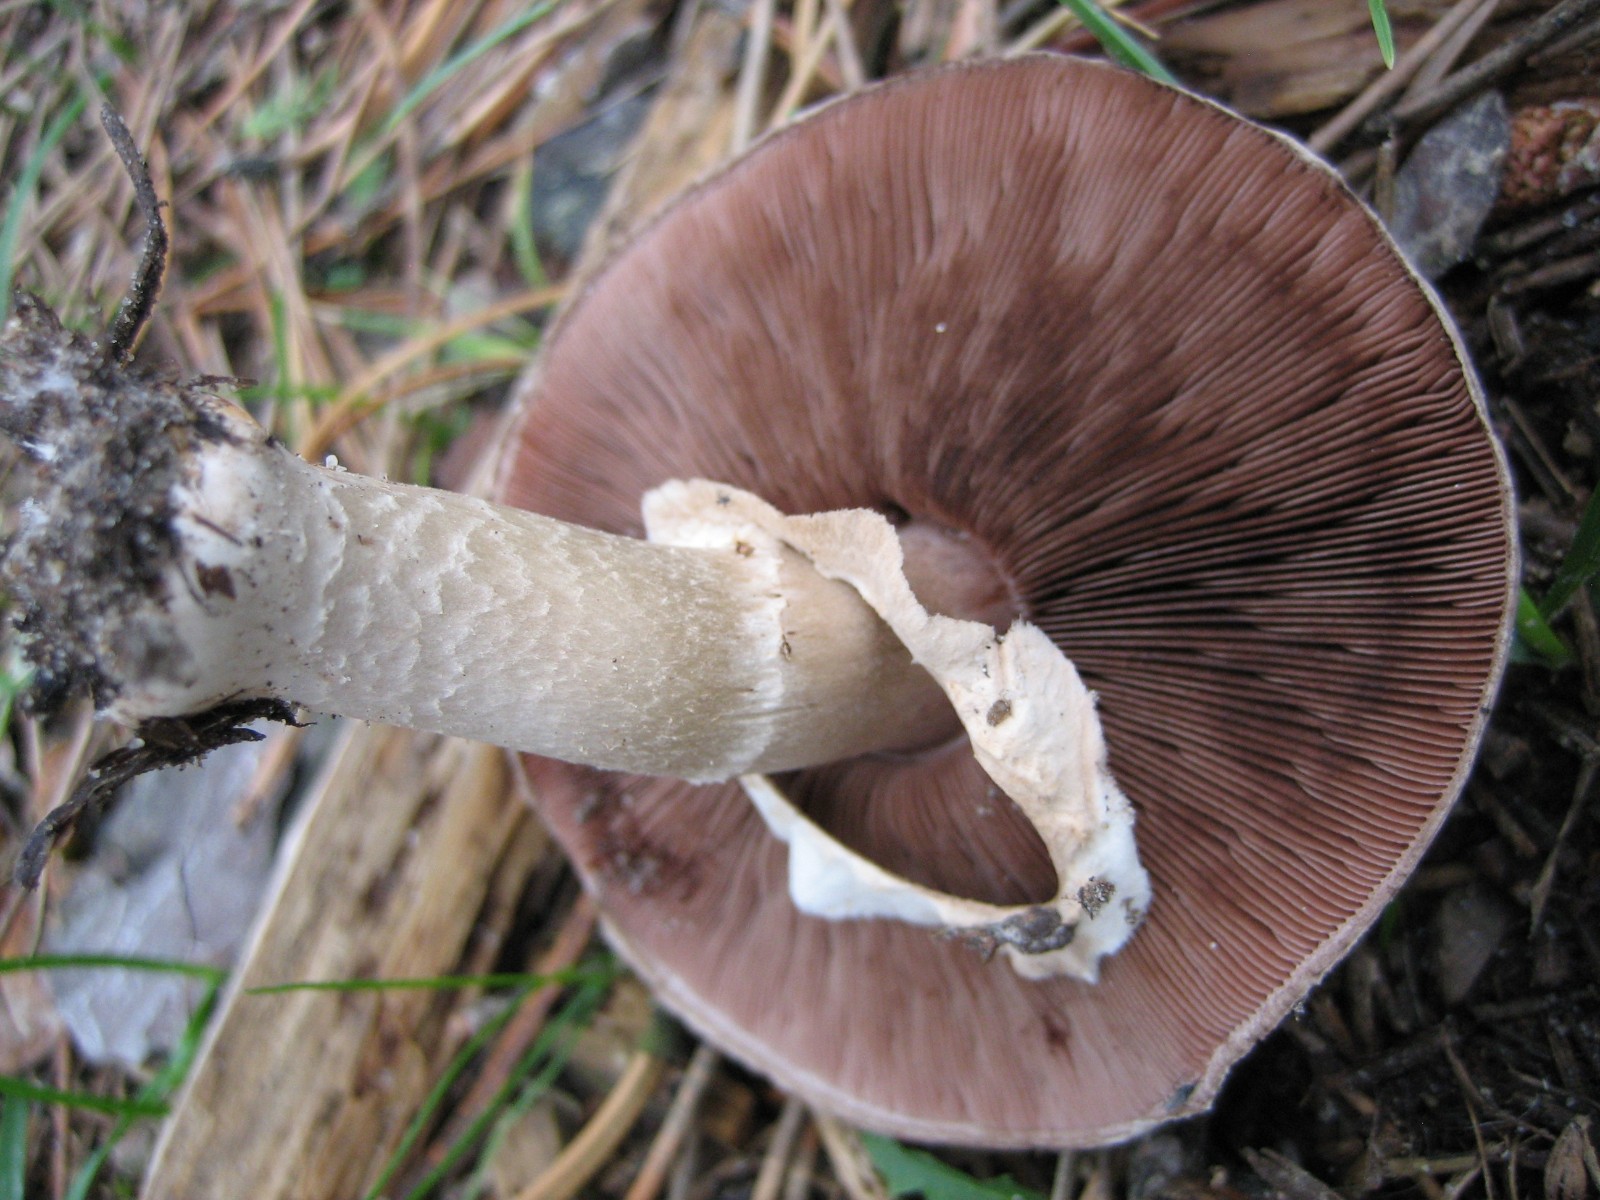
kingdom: Fungi
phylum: Basidiomycota
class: Agaricomycetes
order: Agaricales
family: Agaricaceae
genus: Agaricus
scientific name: Agaricus
